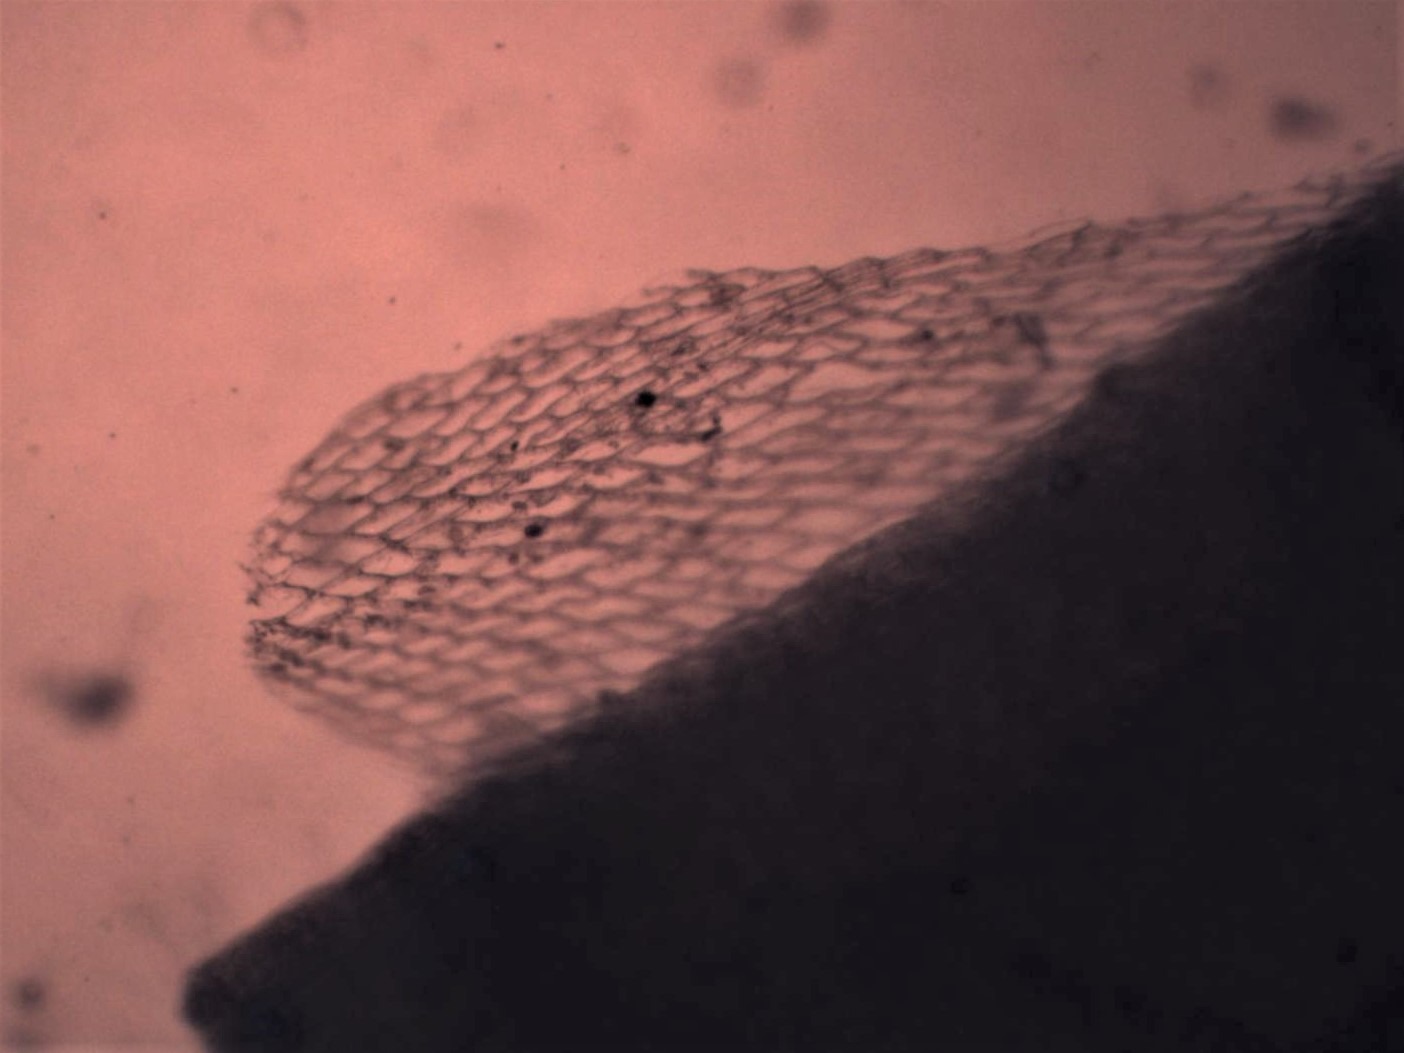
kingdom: Plantae
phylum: Bryophyta
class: Sphagnopsida
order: Sphagnales
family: Sphagnaceae
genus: Sphagnum
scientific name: Sphagnum squarrosum
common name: Udspærret tørvemos
